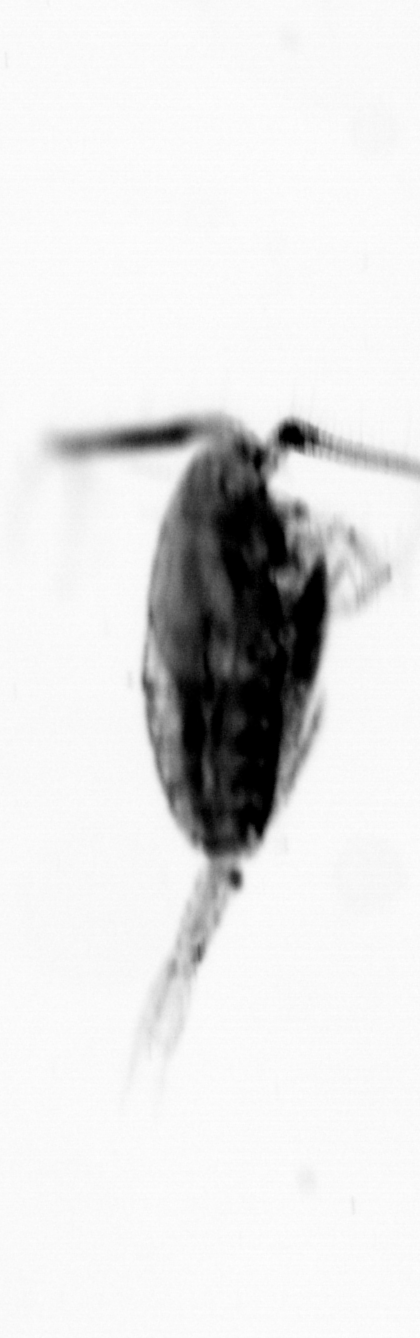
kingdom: Animalia
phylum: Arthropoda
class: Copepoda
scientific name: Copepoda
